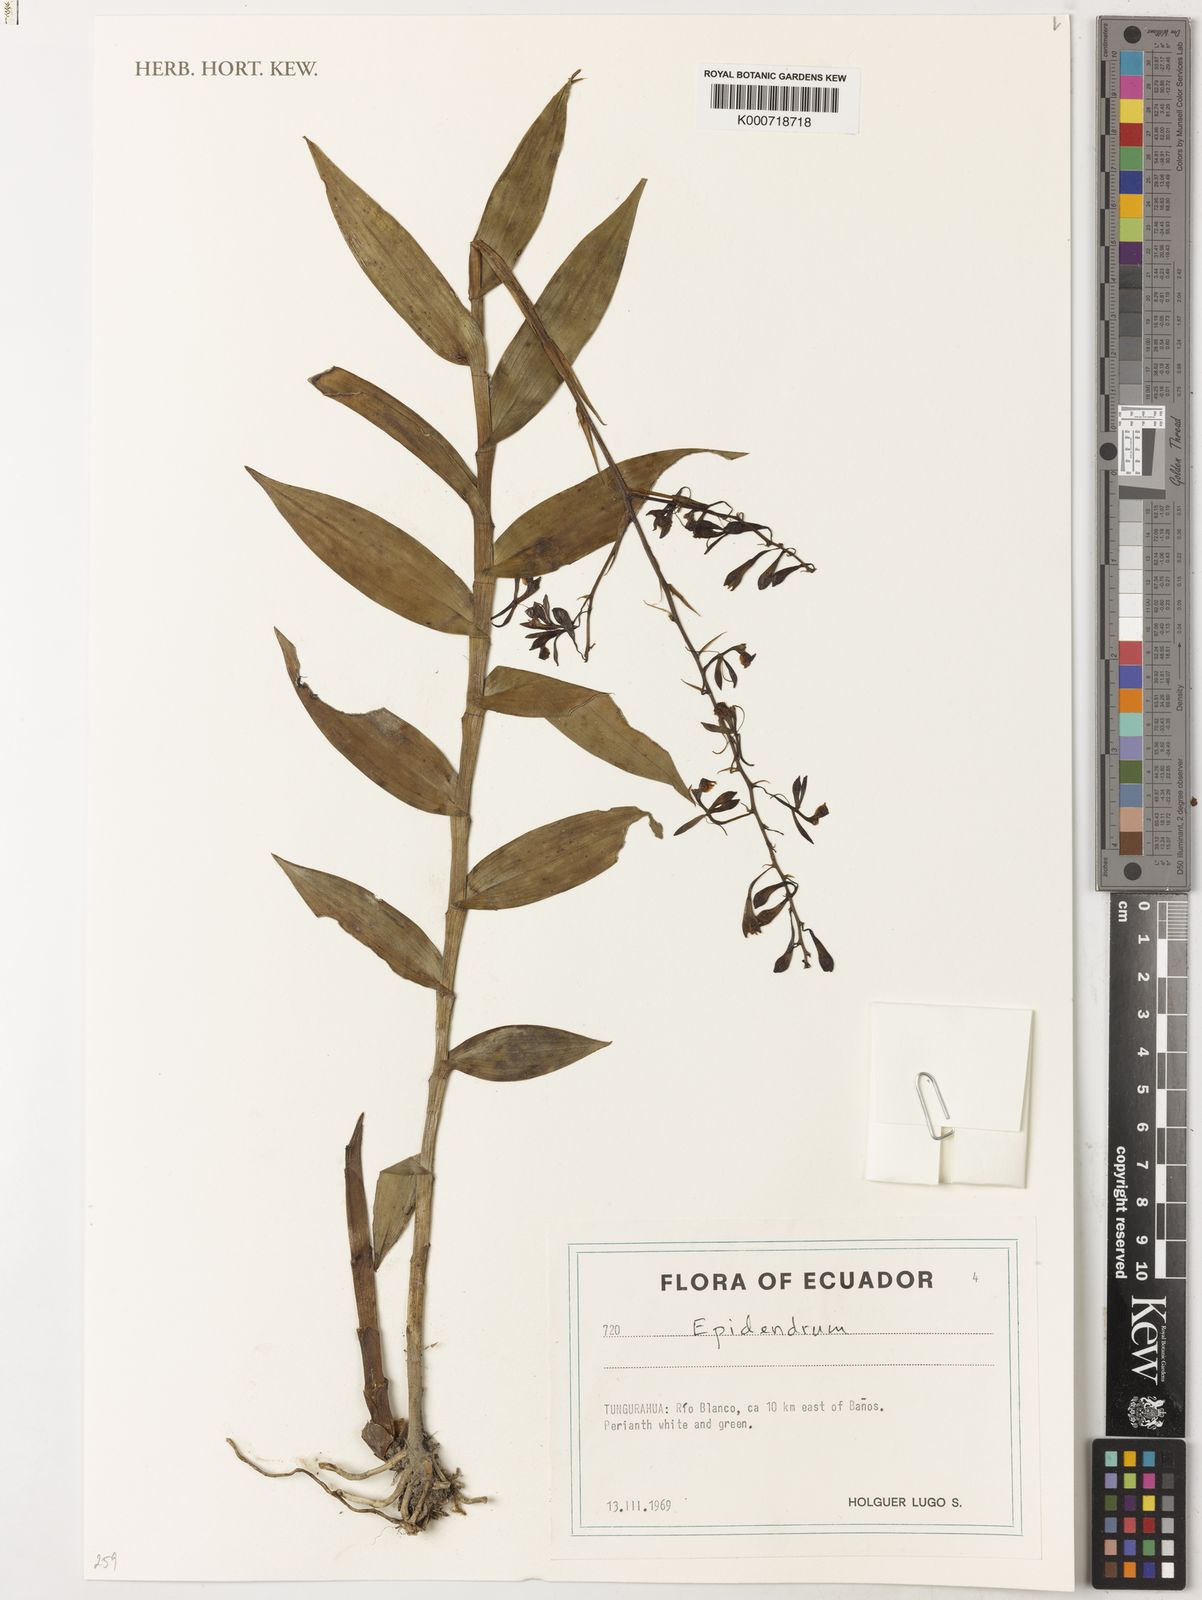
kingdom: Plantae
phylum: Tracheophyta
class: Liliopsida
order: Asparagales
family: Orchidaceae
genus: Epidendrum
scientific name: Epidendrum
